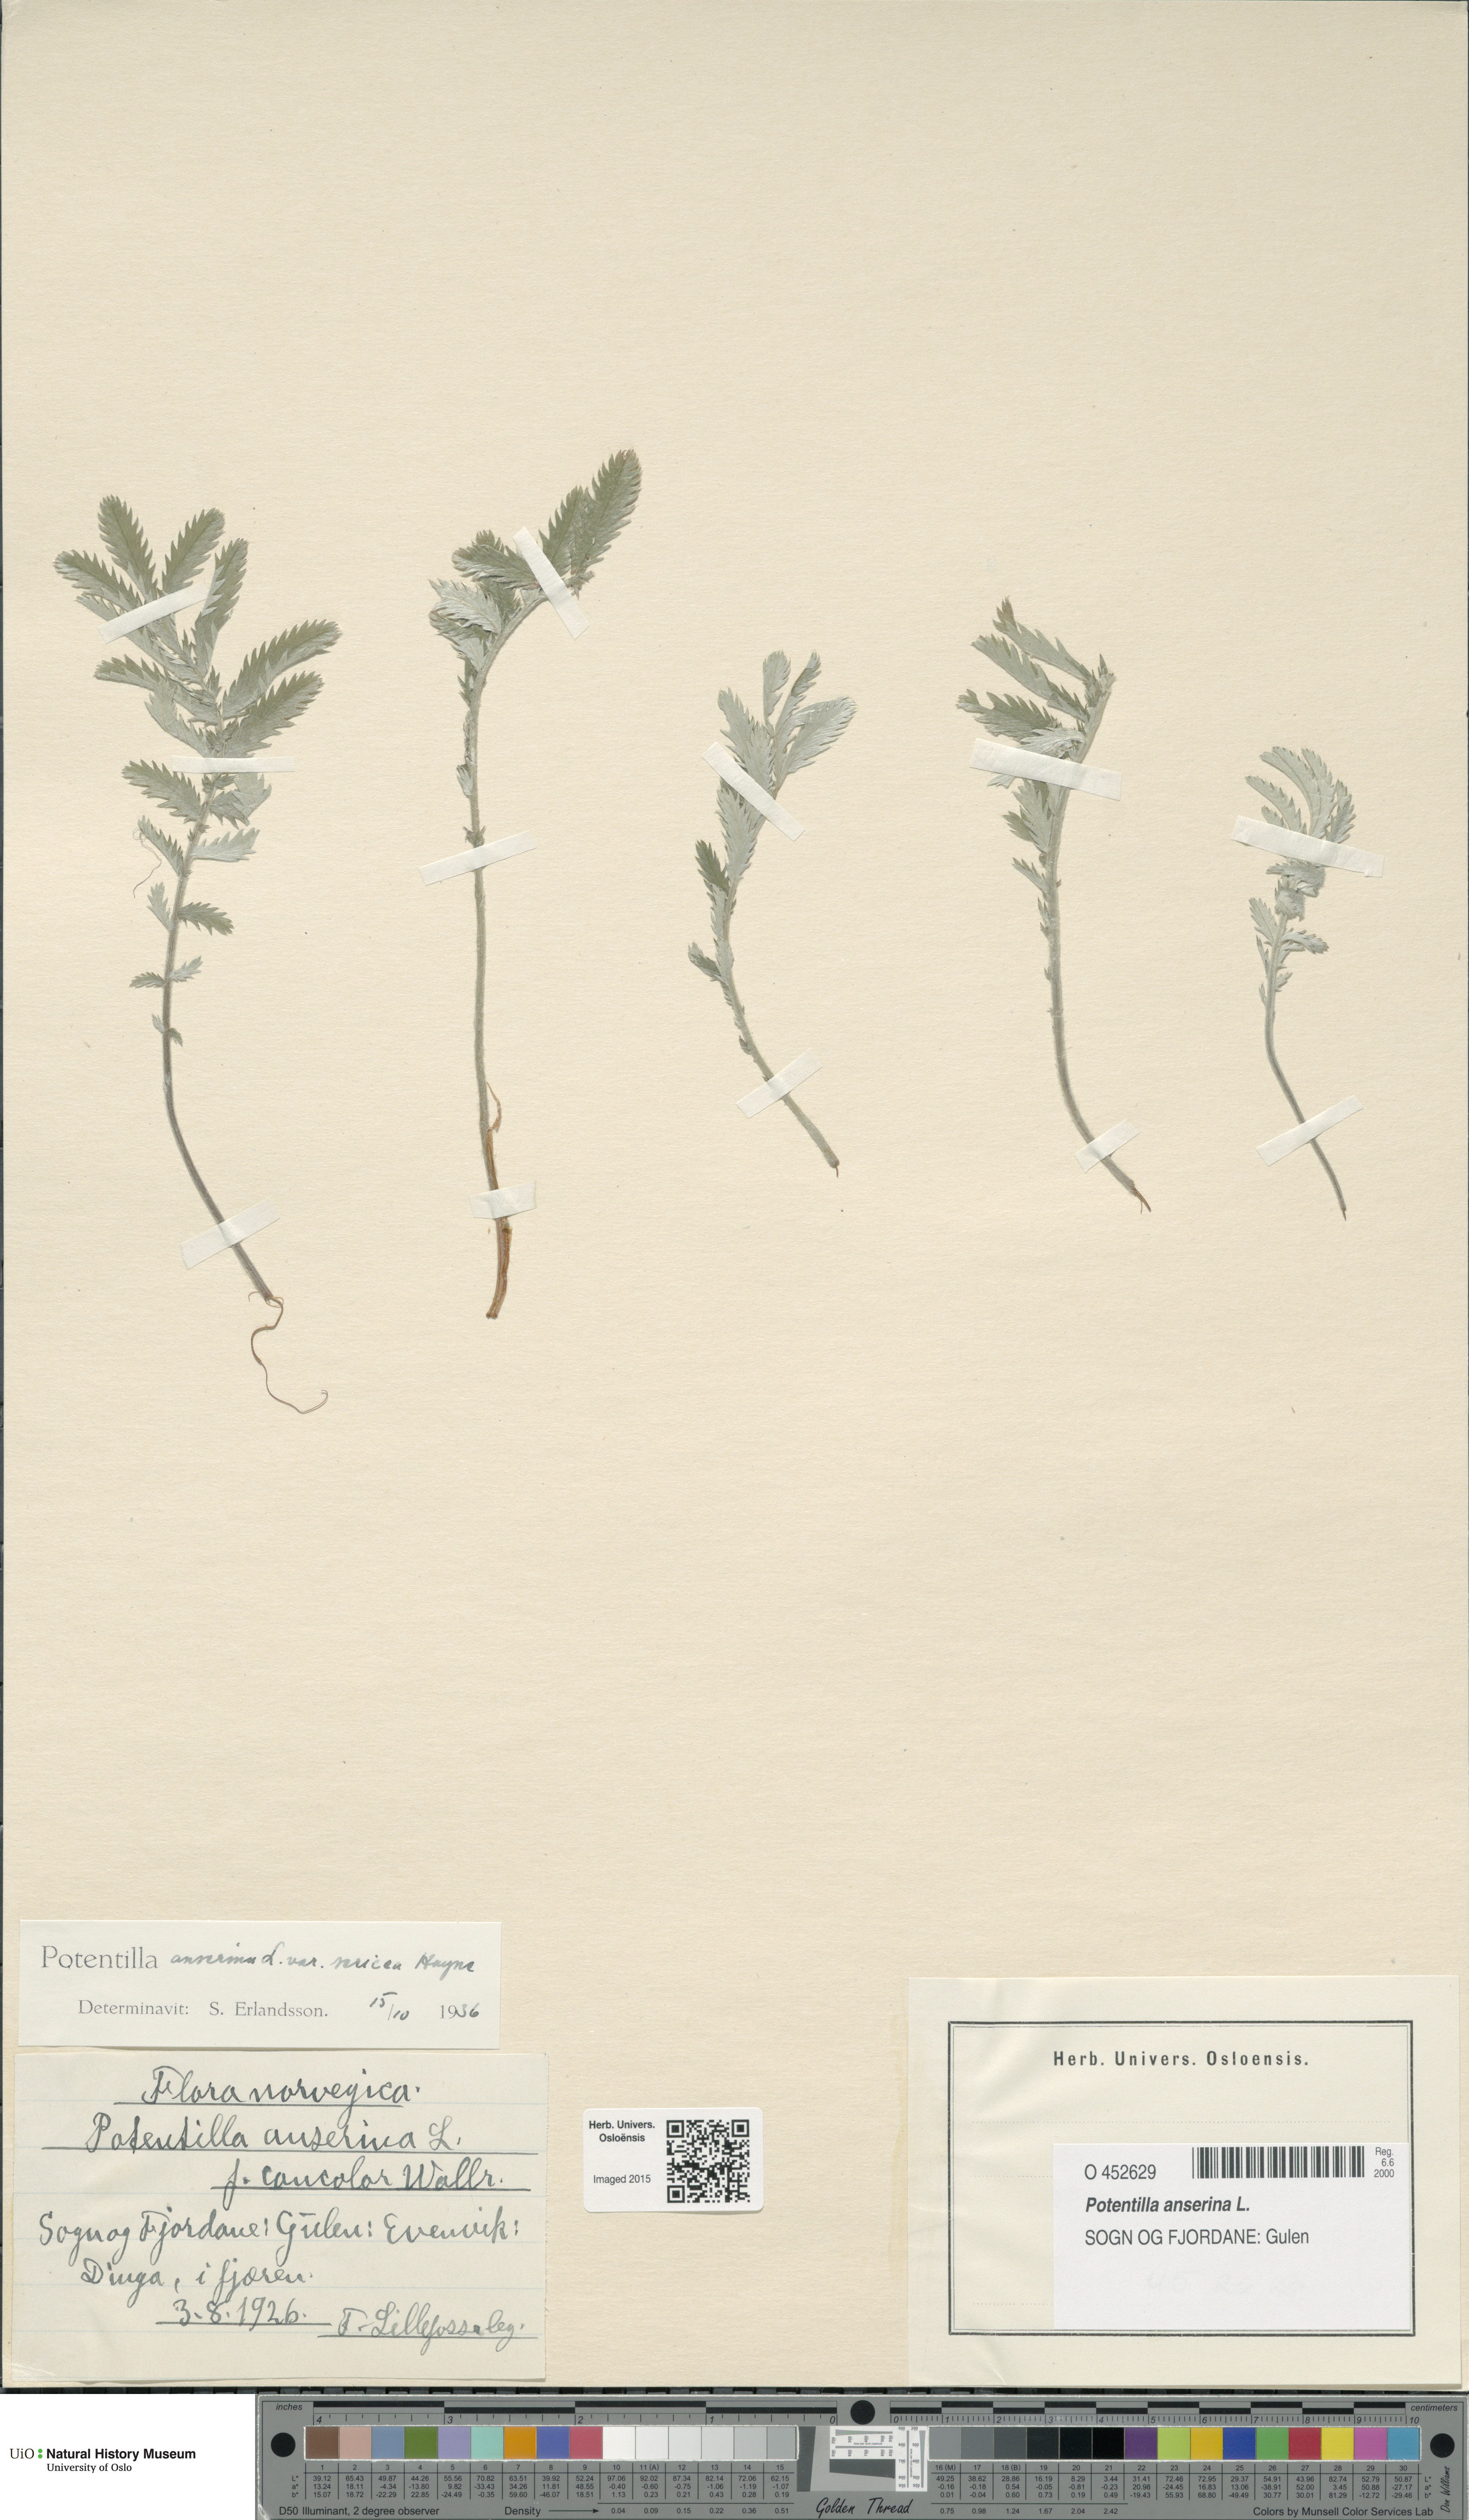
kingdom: Plantae
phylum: Tracheophyta
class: Magnoliopsida
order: Rosales
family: Rosaceae
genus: Argentina
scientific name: Argentina anserina
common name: Common silverweed
